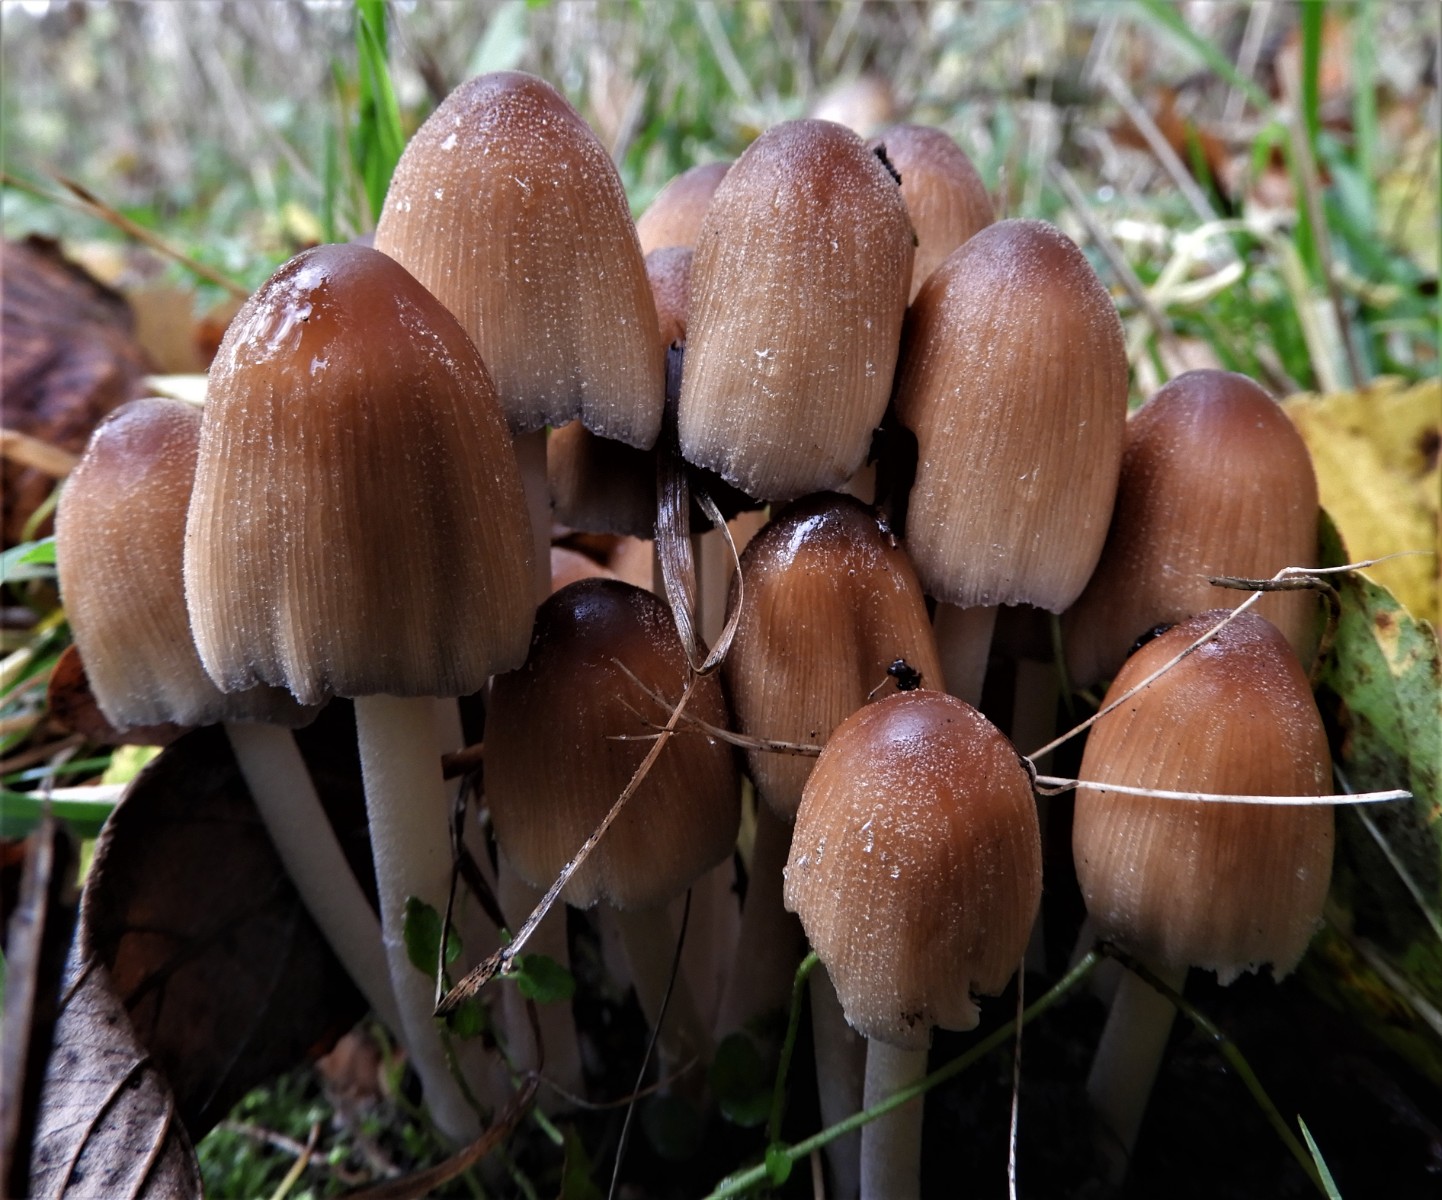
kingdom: Fungi
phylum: Basidiomycota
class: Agaricomycetes
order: Agaricales
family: Psathyrellaceae
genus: Coprinellus
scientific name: Coprinellus micaceus
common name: glimmer-blækhat
